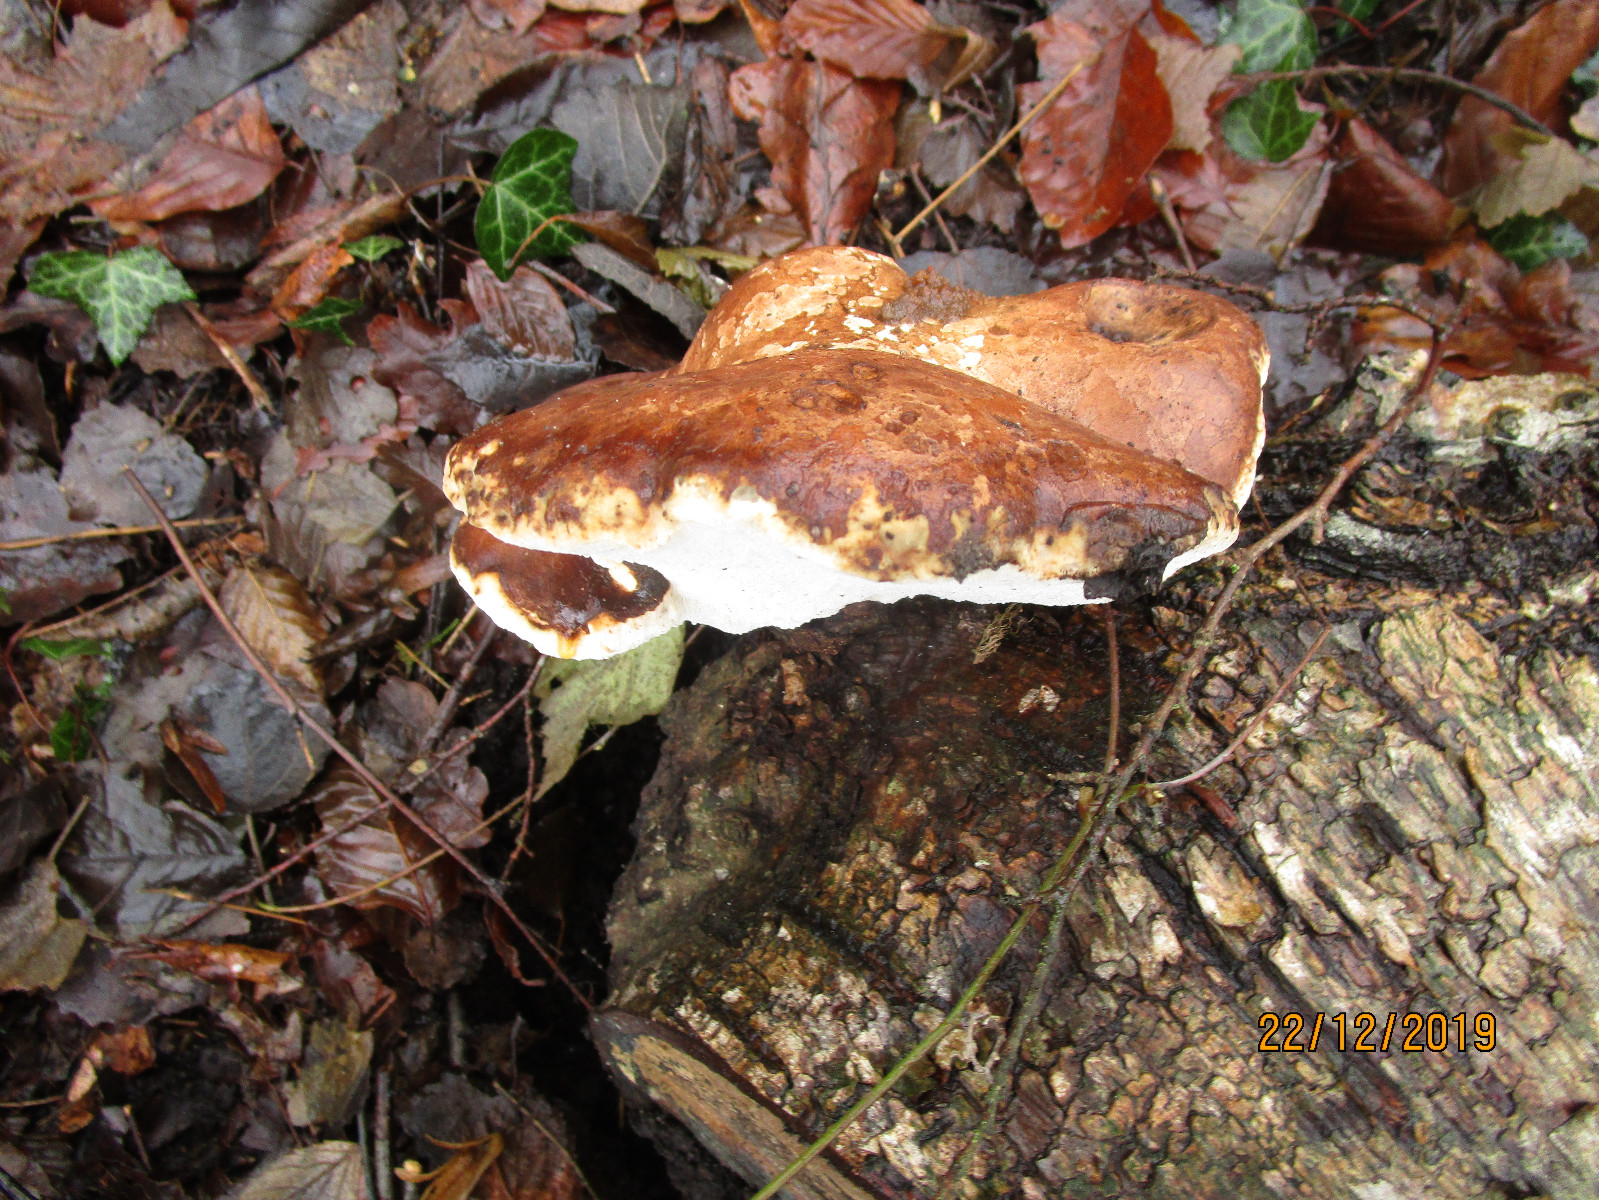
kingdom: Fungi
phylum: Basidiomycota
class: Agaricomycetes
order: Polyporales
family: Fomitopsidaceae
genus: Fomitopsis
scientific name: Fomitopsis betulina
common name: birkeporesvamp
